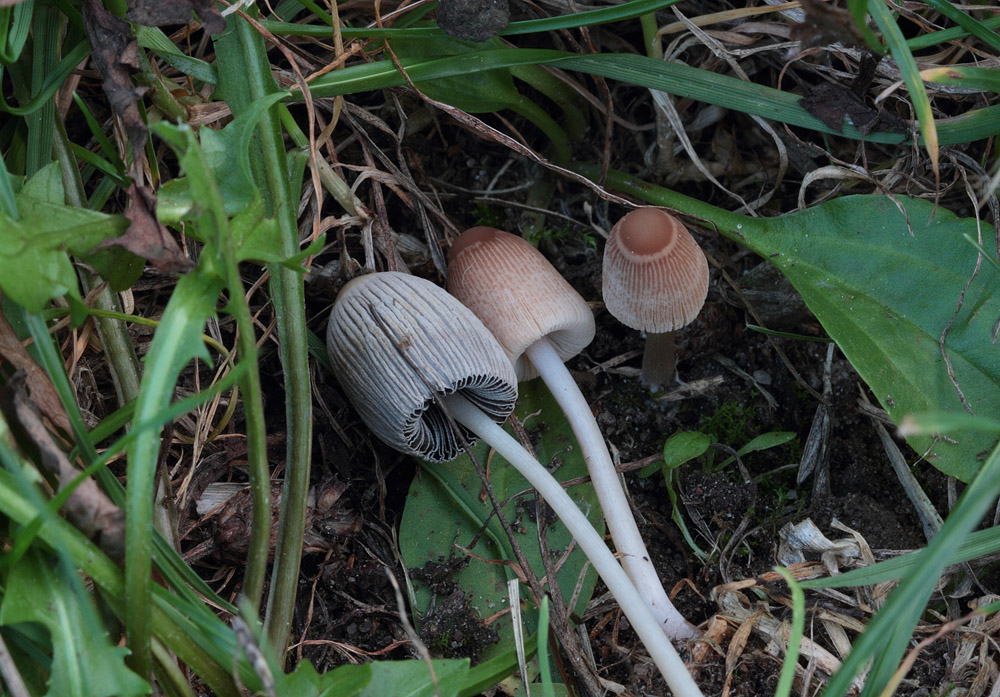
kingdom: Fungi
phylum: Basidiomycota
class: Agaricomycetes
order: Agaricales
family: Psathyrellaceae
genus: Parasola
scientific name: Parasola plicatilis-similis
